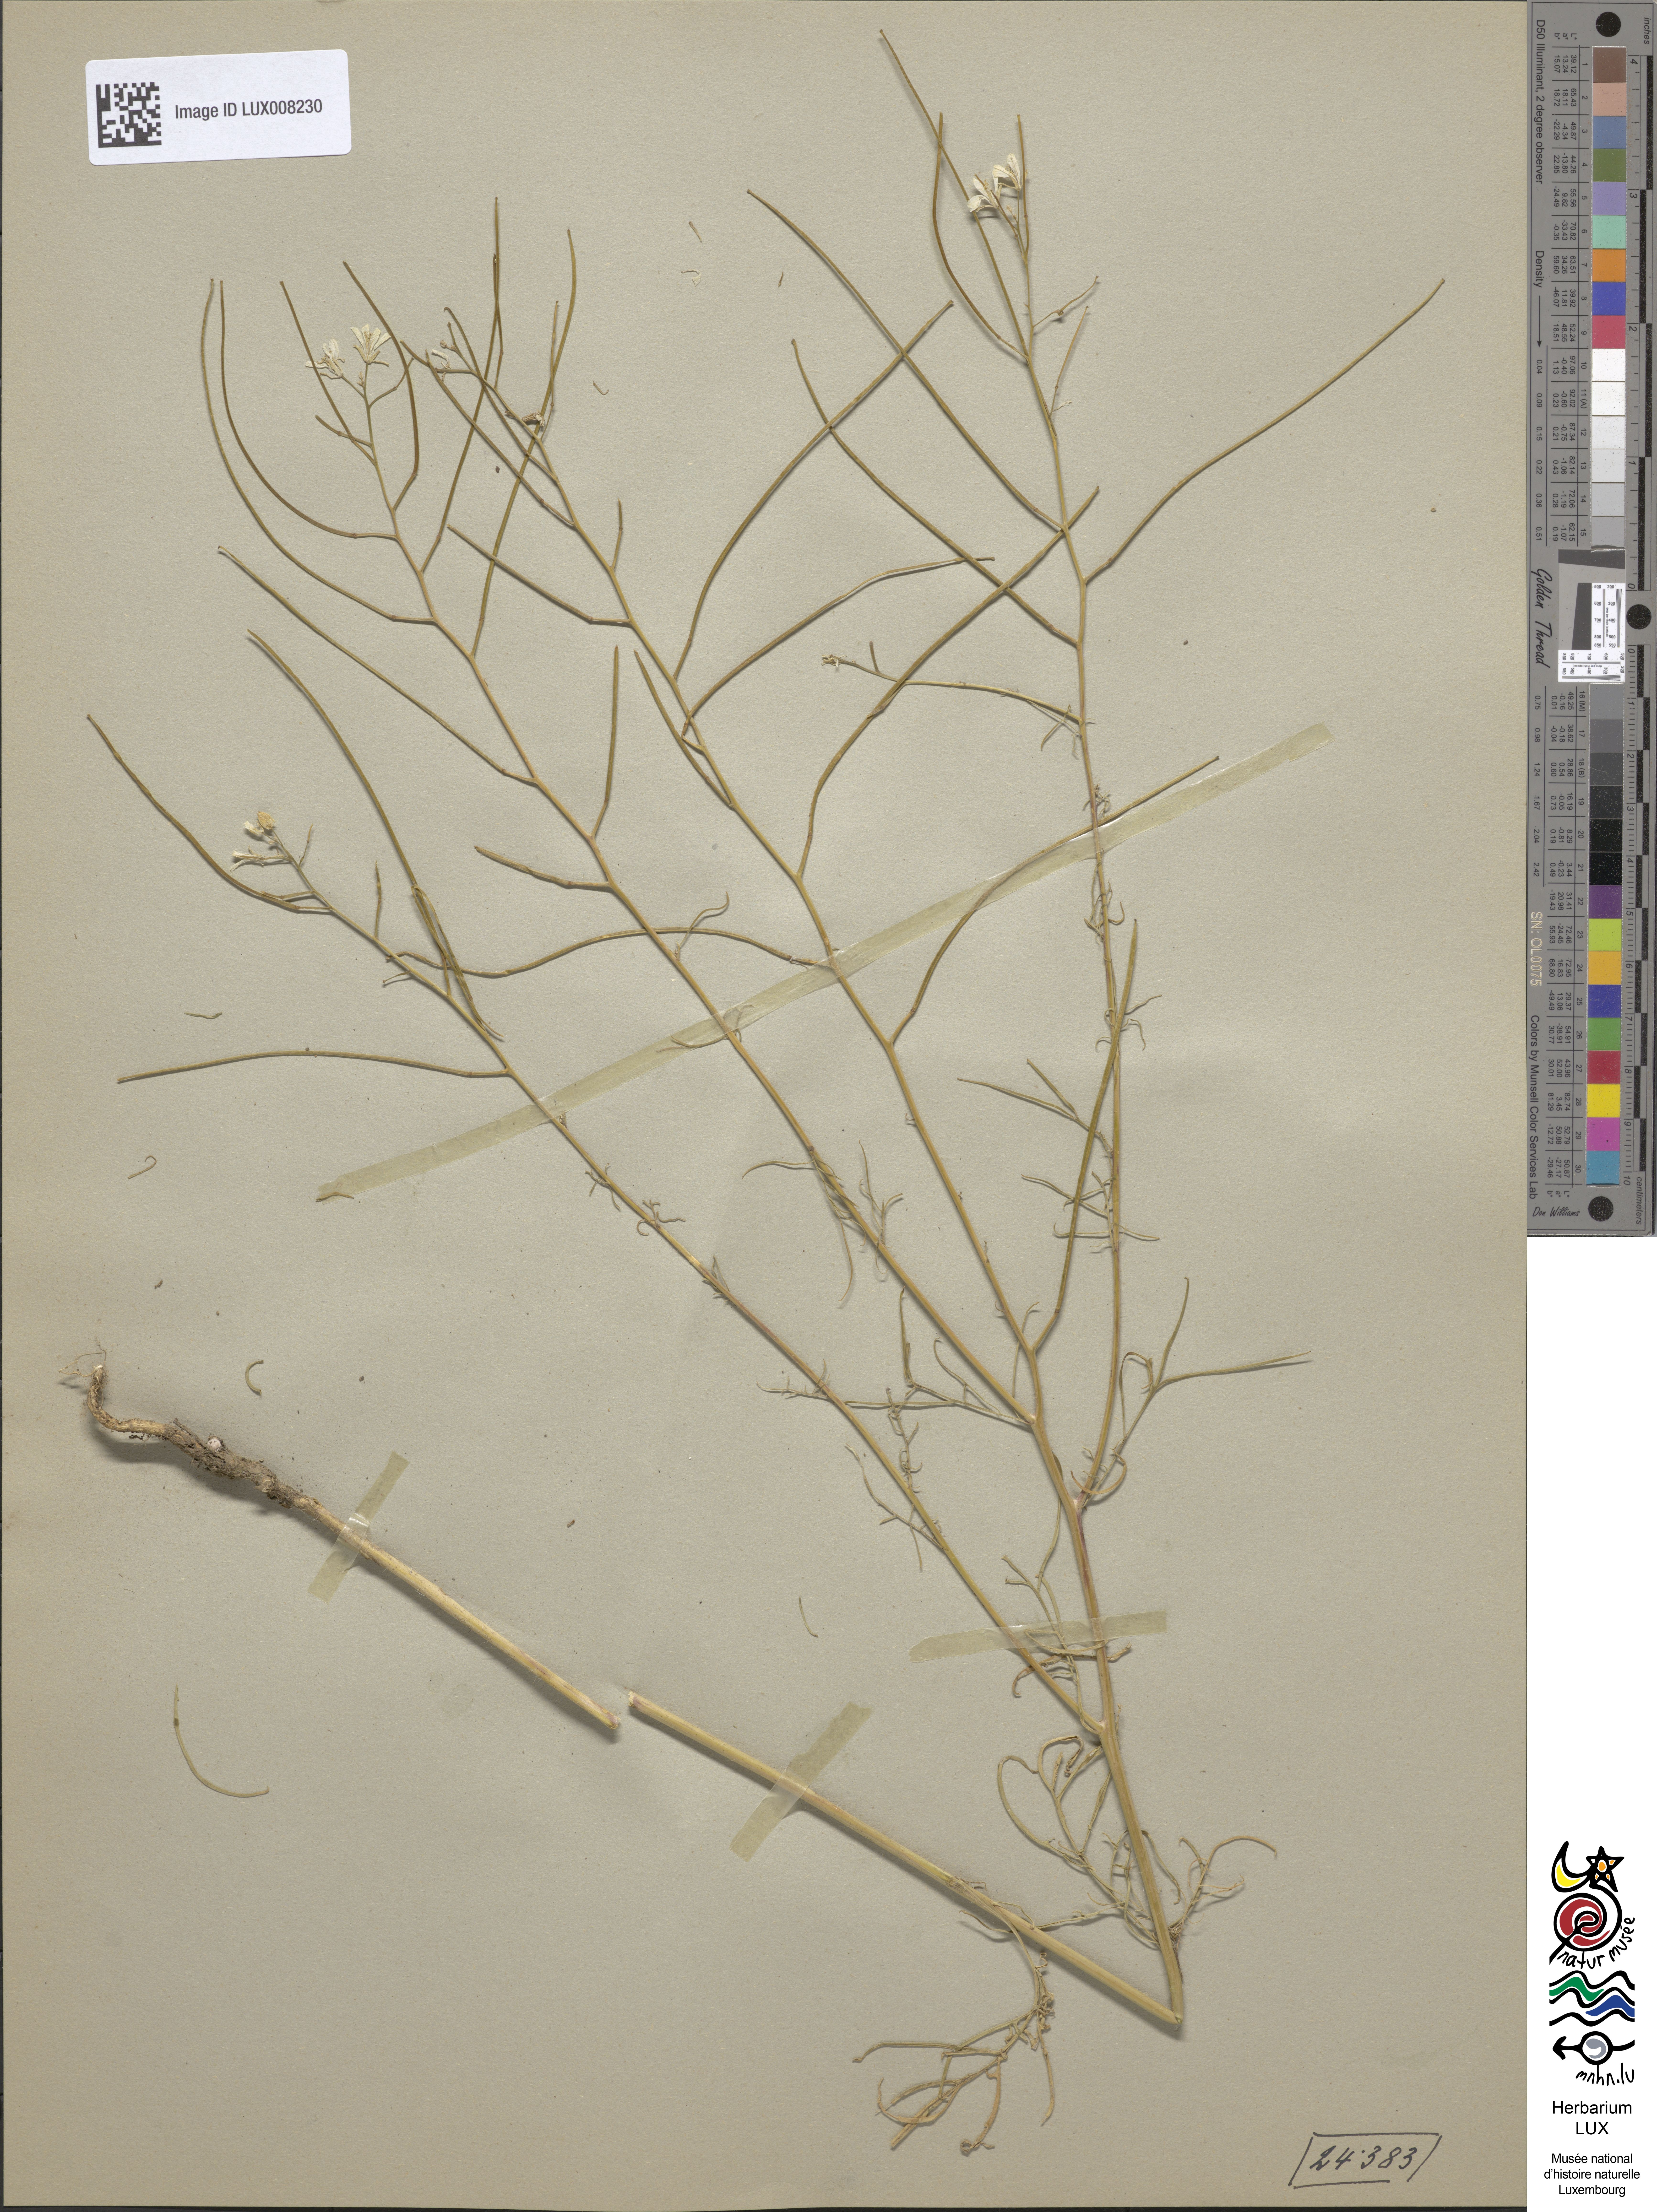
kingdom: Plantae
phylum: Tracheophyta
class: Magnoliopsida
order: Brassicales
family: Brassicaceae
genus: Sisymbrium
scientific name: Sisymbrium altissimum
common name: Tall rocket
